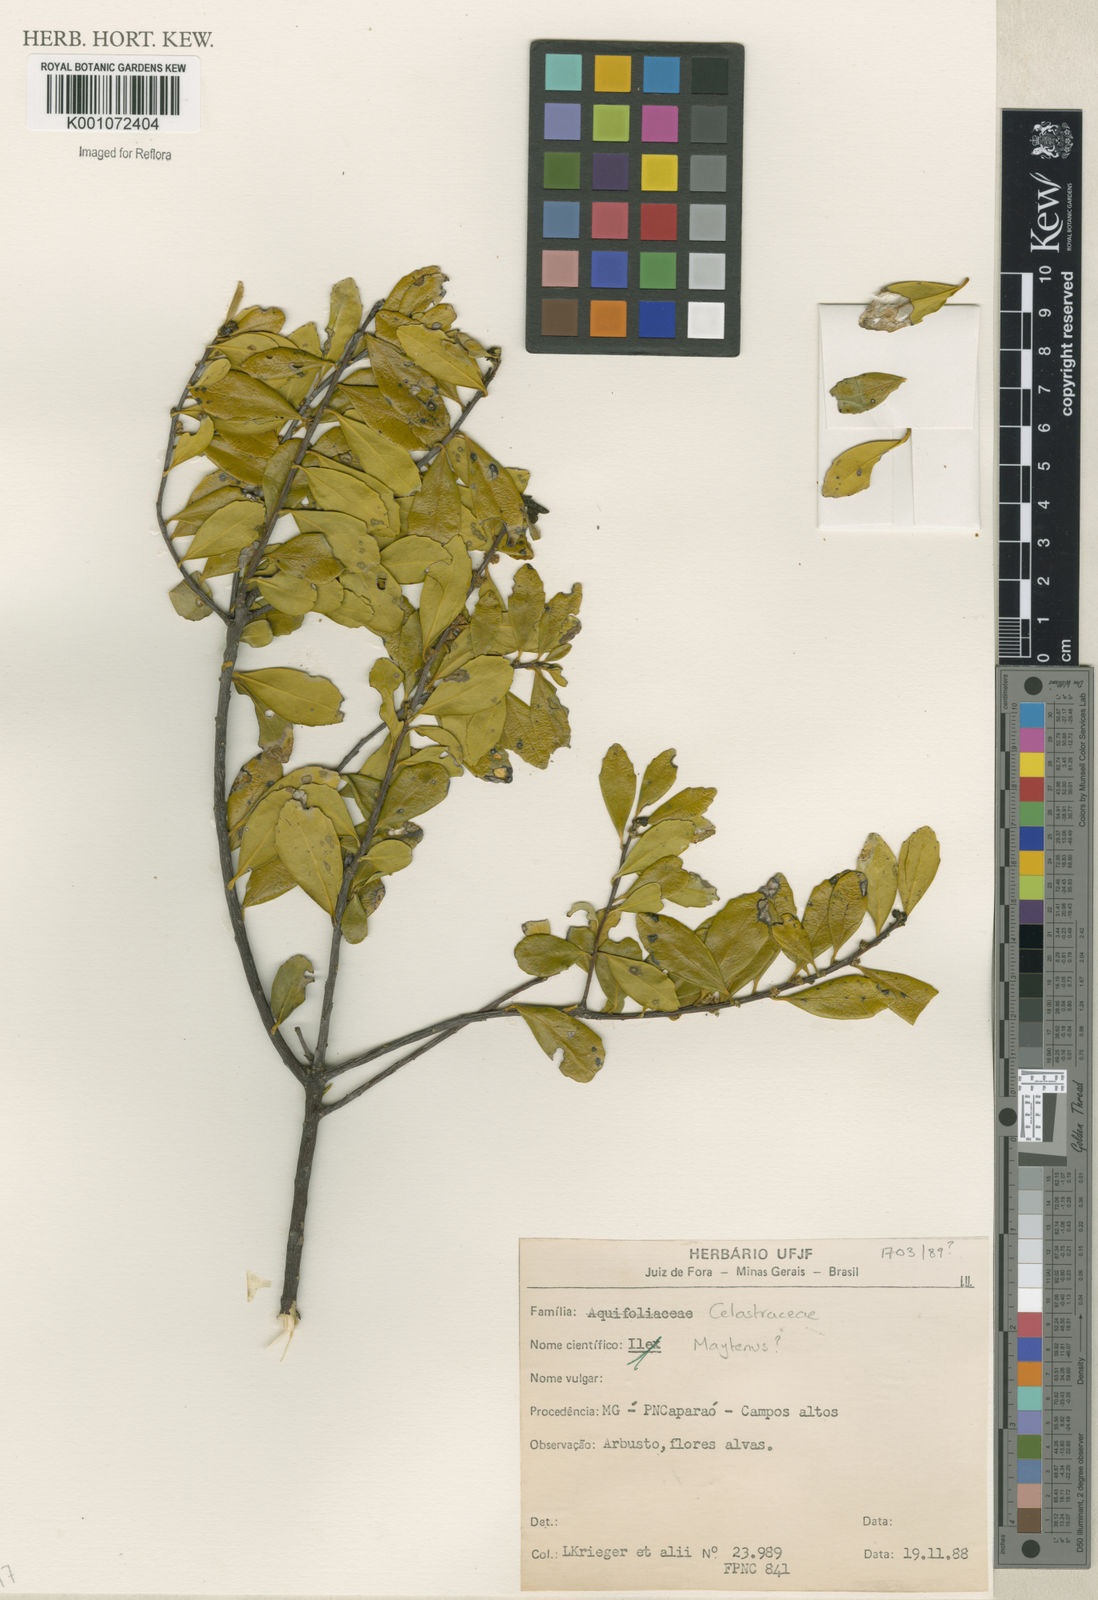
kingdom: Plantae
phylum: Tracheophyta
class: Magnoliopsida
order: Celastrales
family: Celastraceae
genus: Maytenus
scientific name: Maytenus
